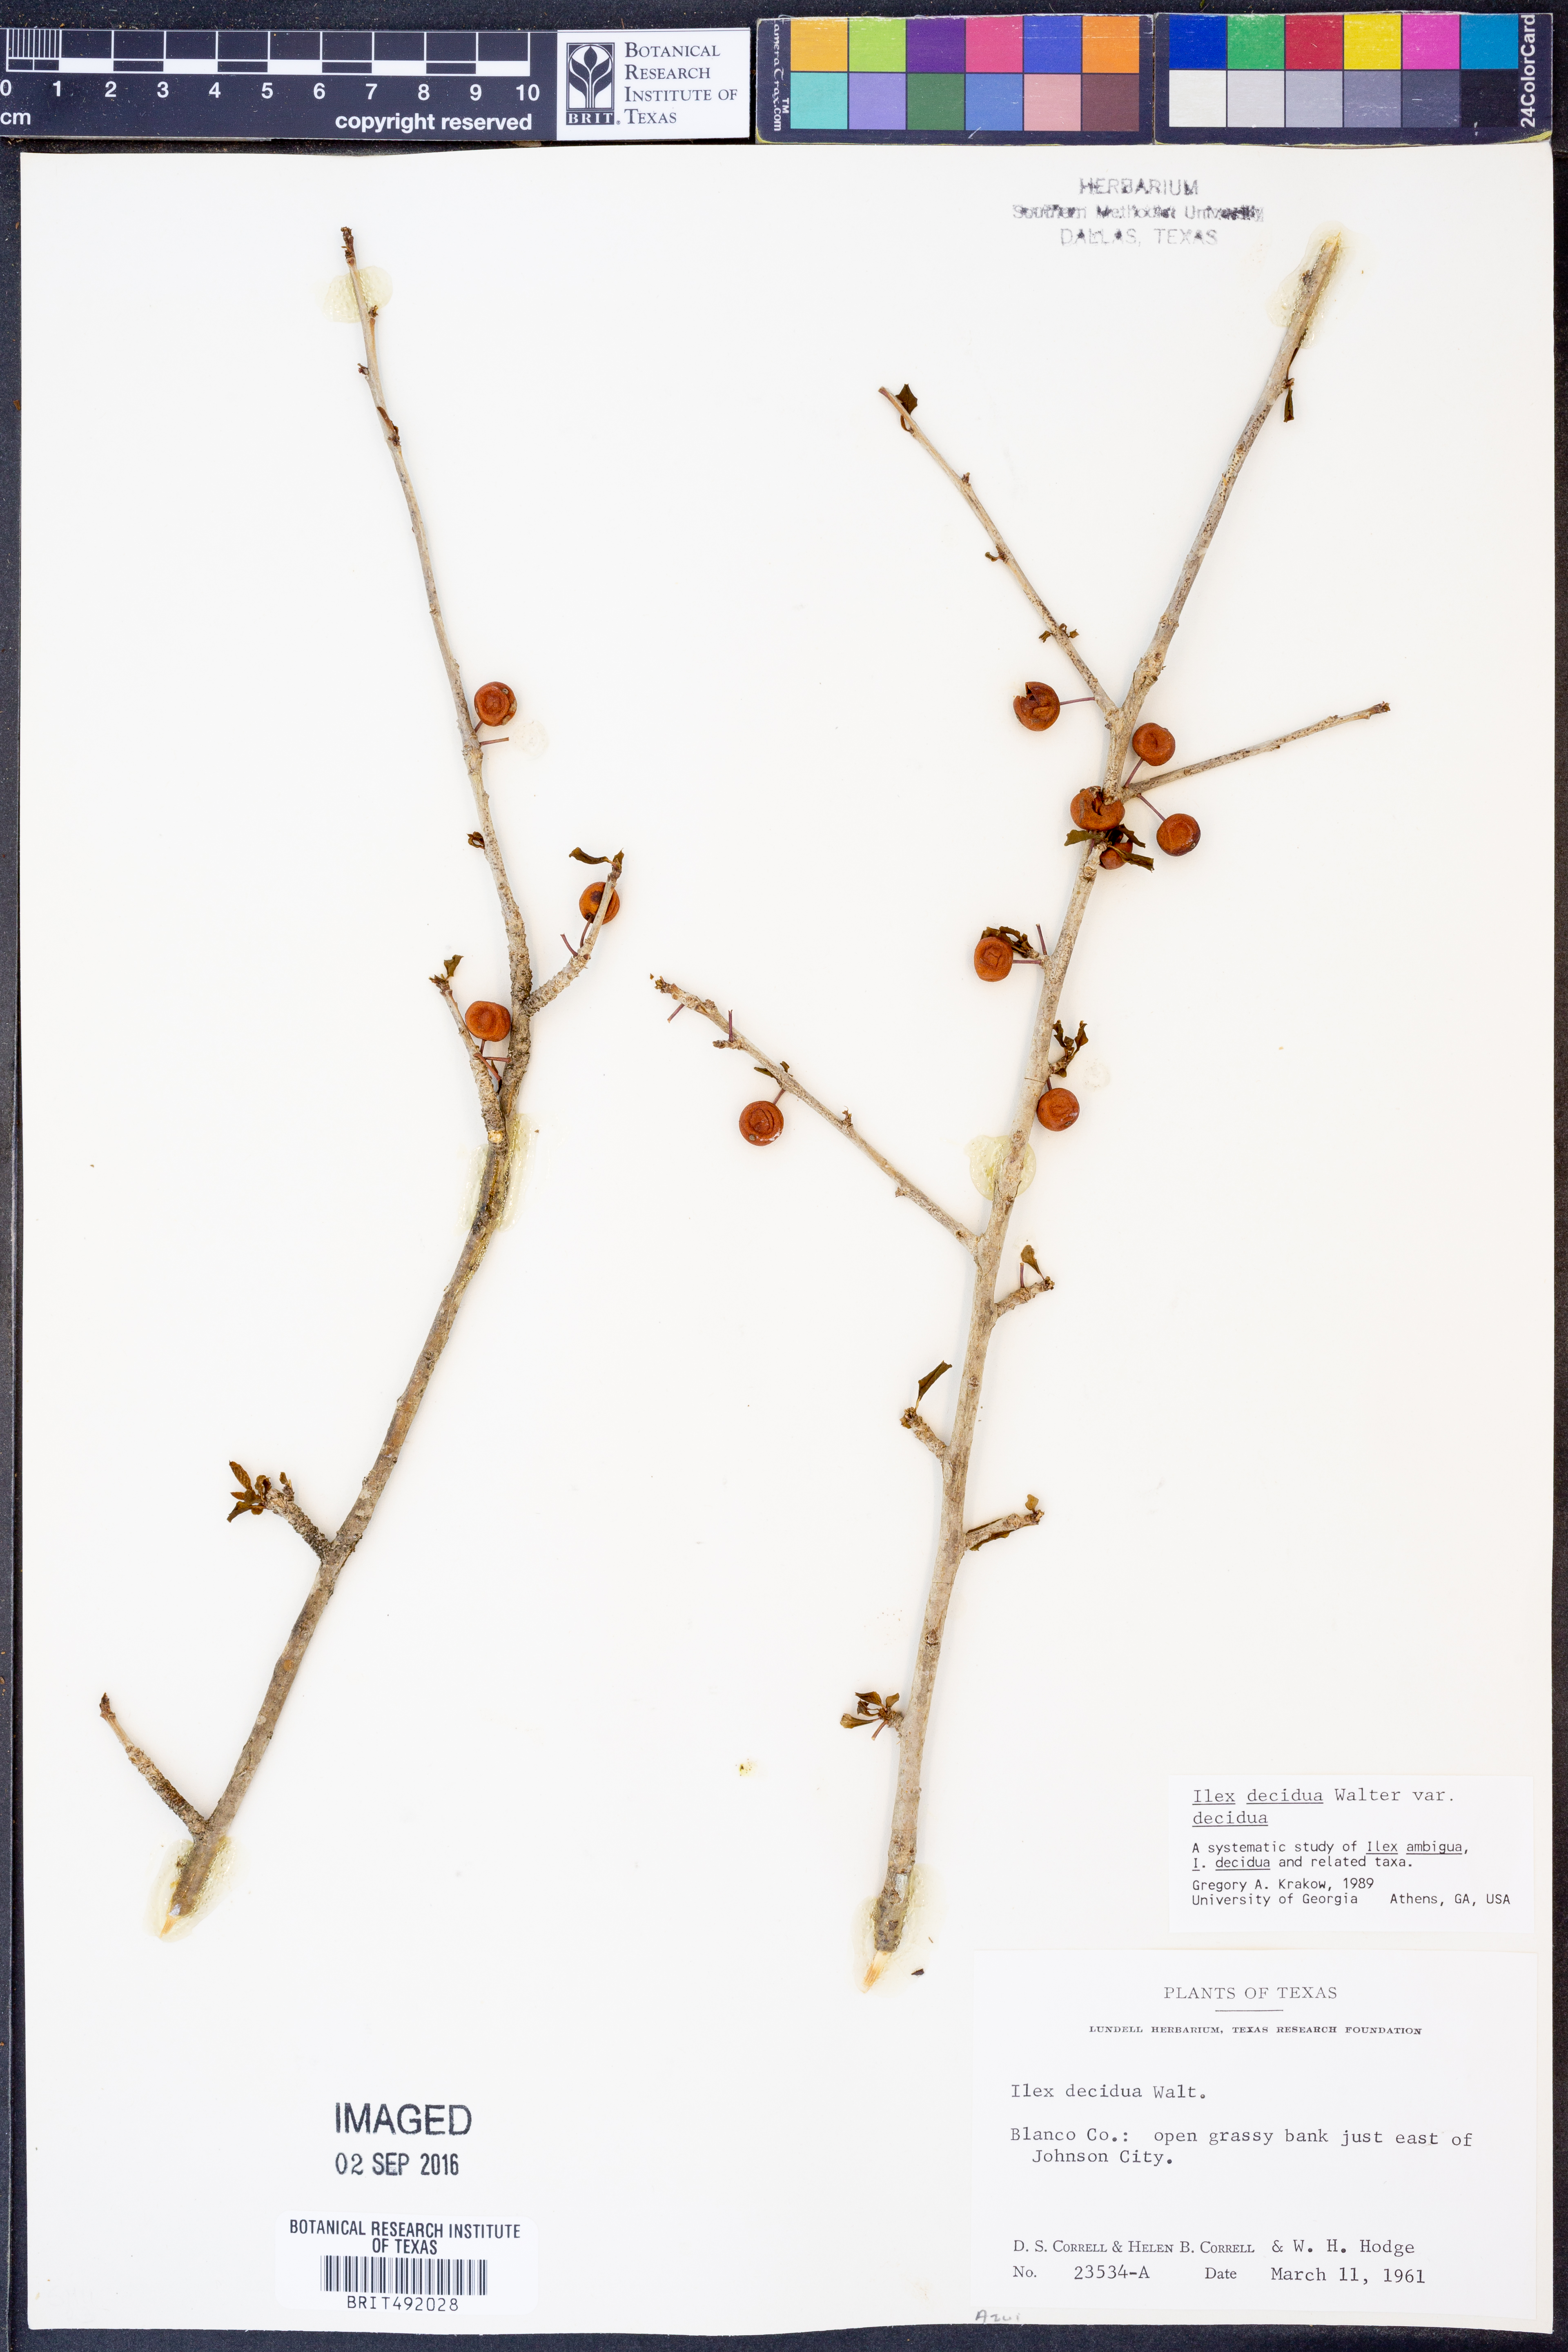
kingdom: Plantae
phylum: Tracheophyta
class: Magnoliopsida
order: Aquifoliales
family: Aquifoliaceae
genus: Ilex
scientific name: Ilex decidua
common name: Possum-haw
